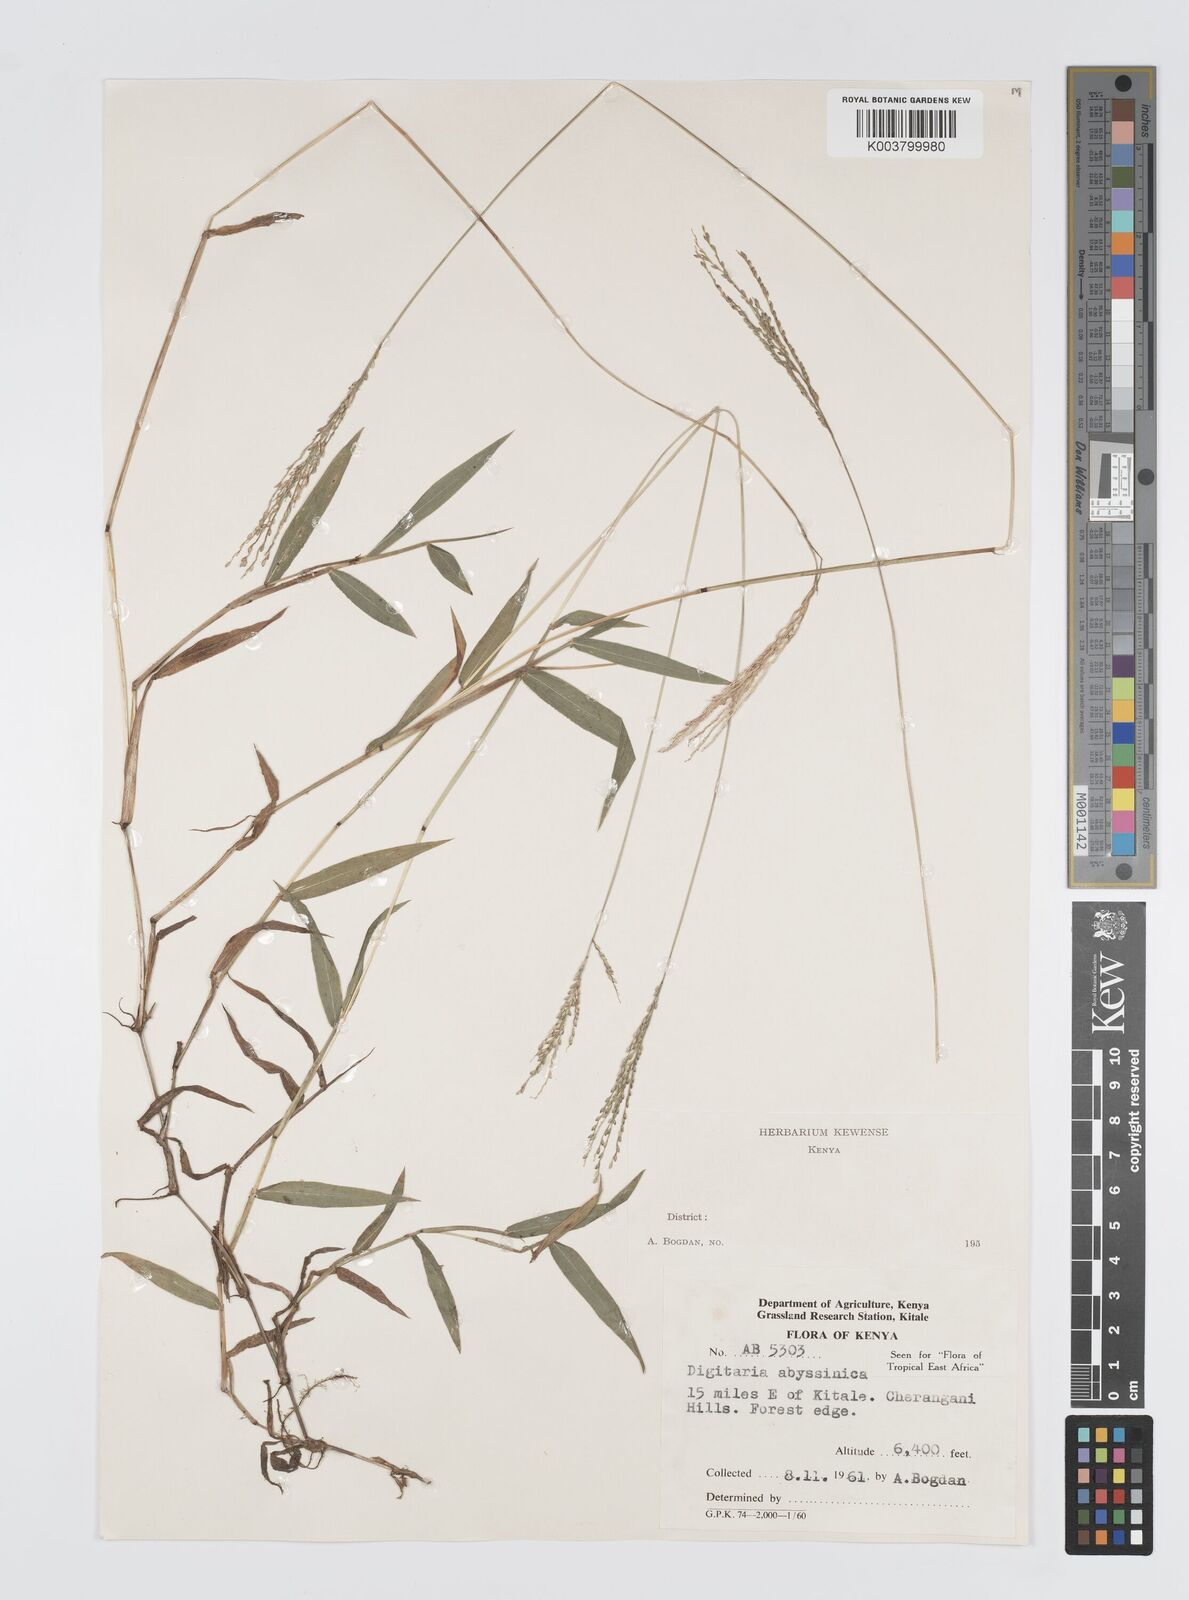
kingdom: Plantae
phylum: Tracheophyta
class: Liliopsida
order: Poales
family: Poaceae
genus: Digitaria
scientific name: Digitaria abyssinica
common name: African couchgrass
